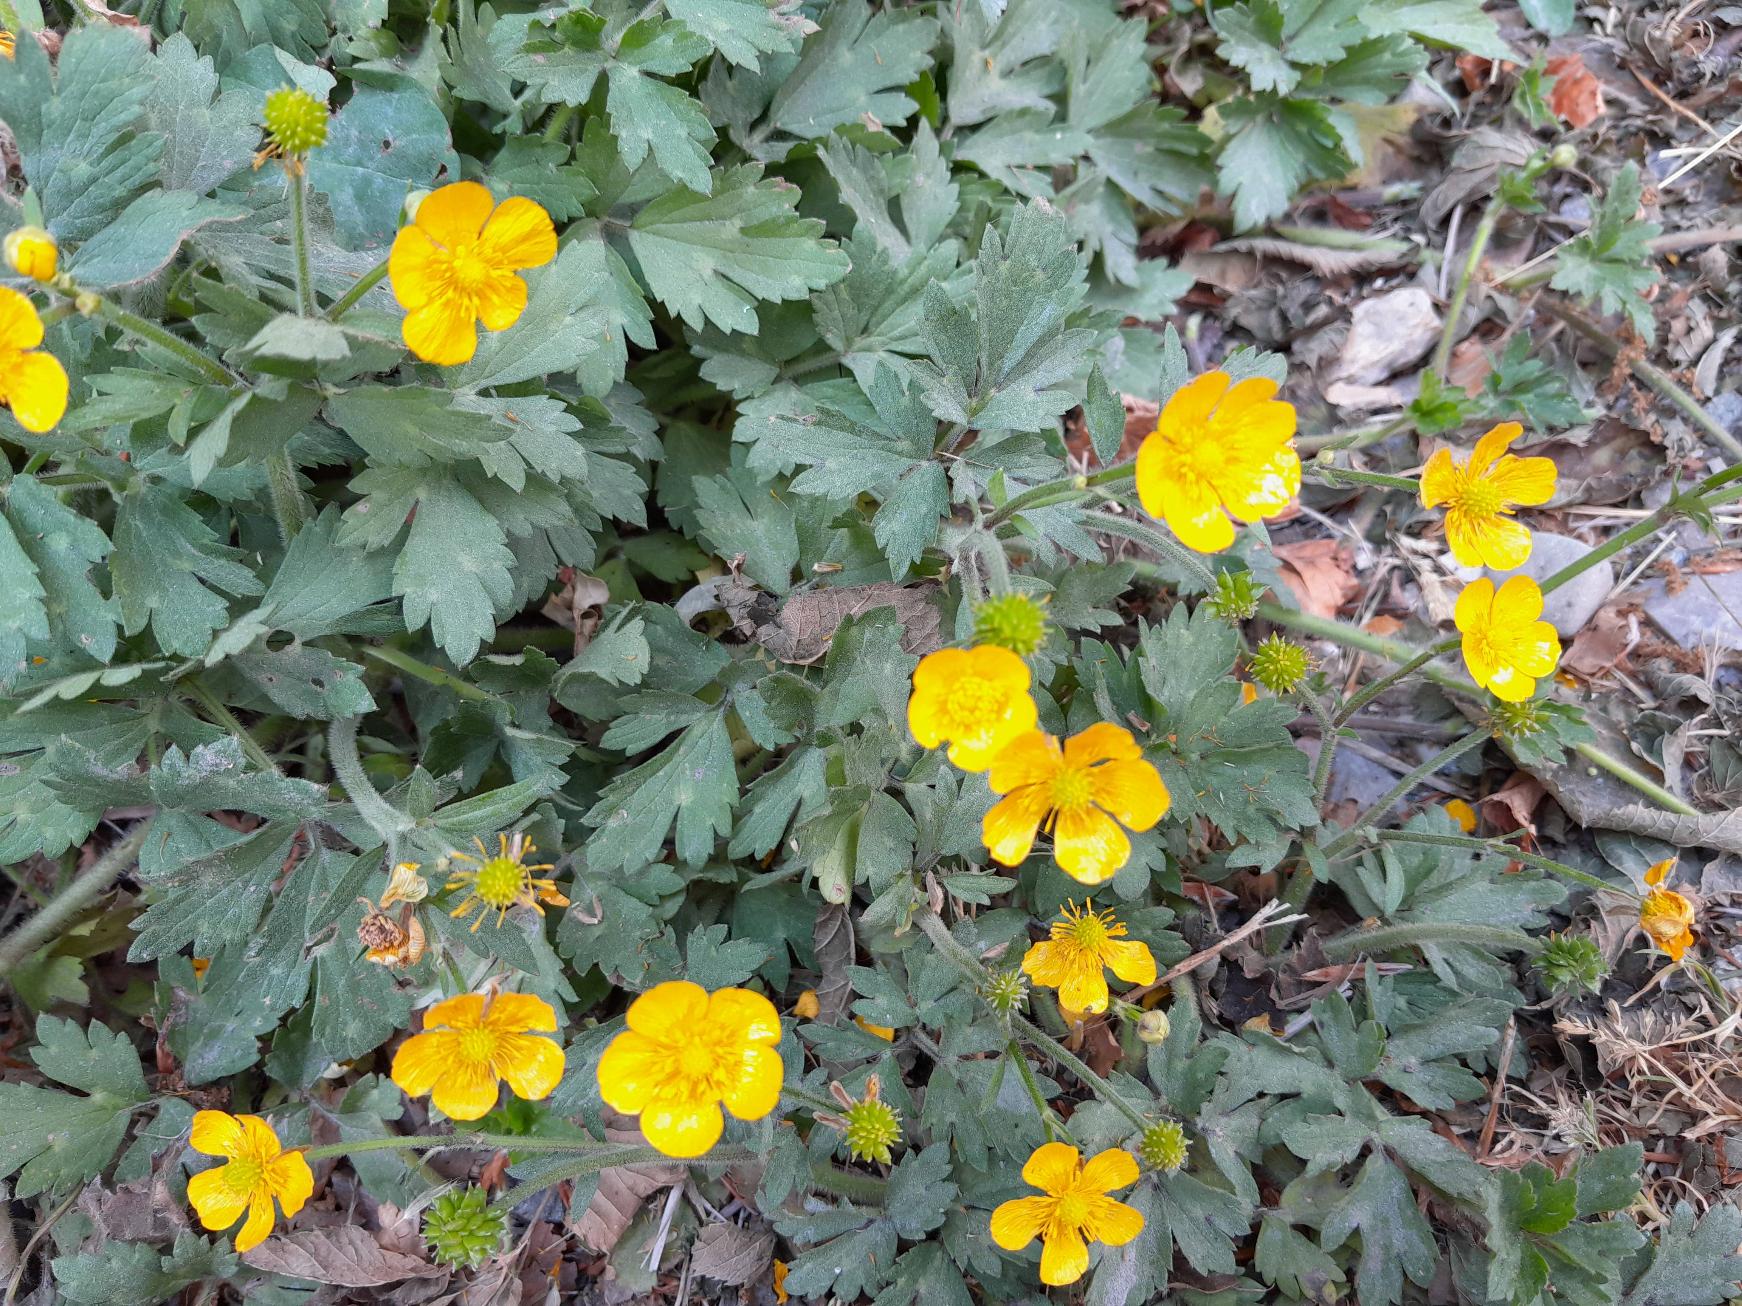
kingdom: Plantae
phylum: Tracheophyta
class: Magnoliopsida
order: Ranunculales
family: Ranunculaceae
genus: Ranunculus
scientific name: Ranunculus repens
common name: Lav ranunkel
